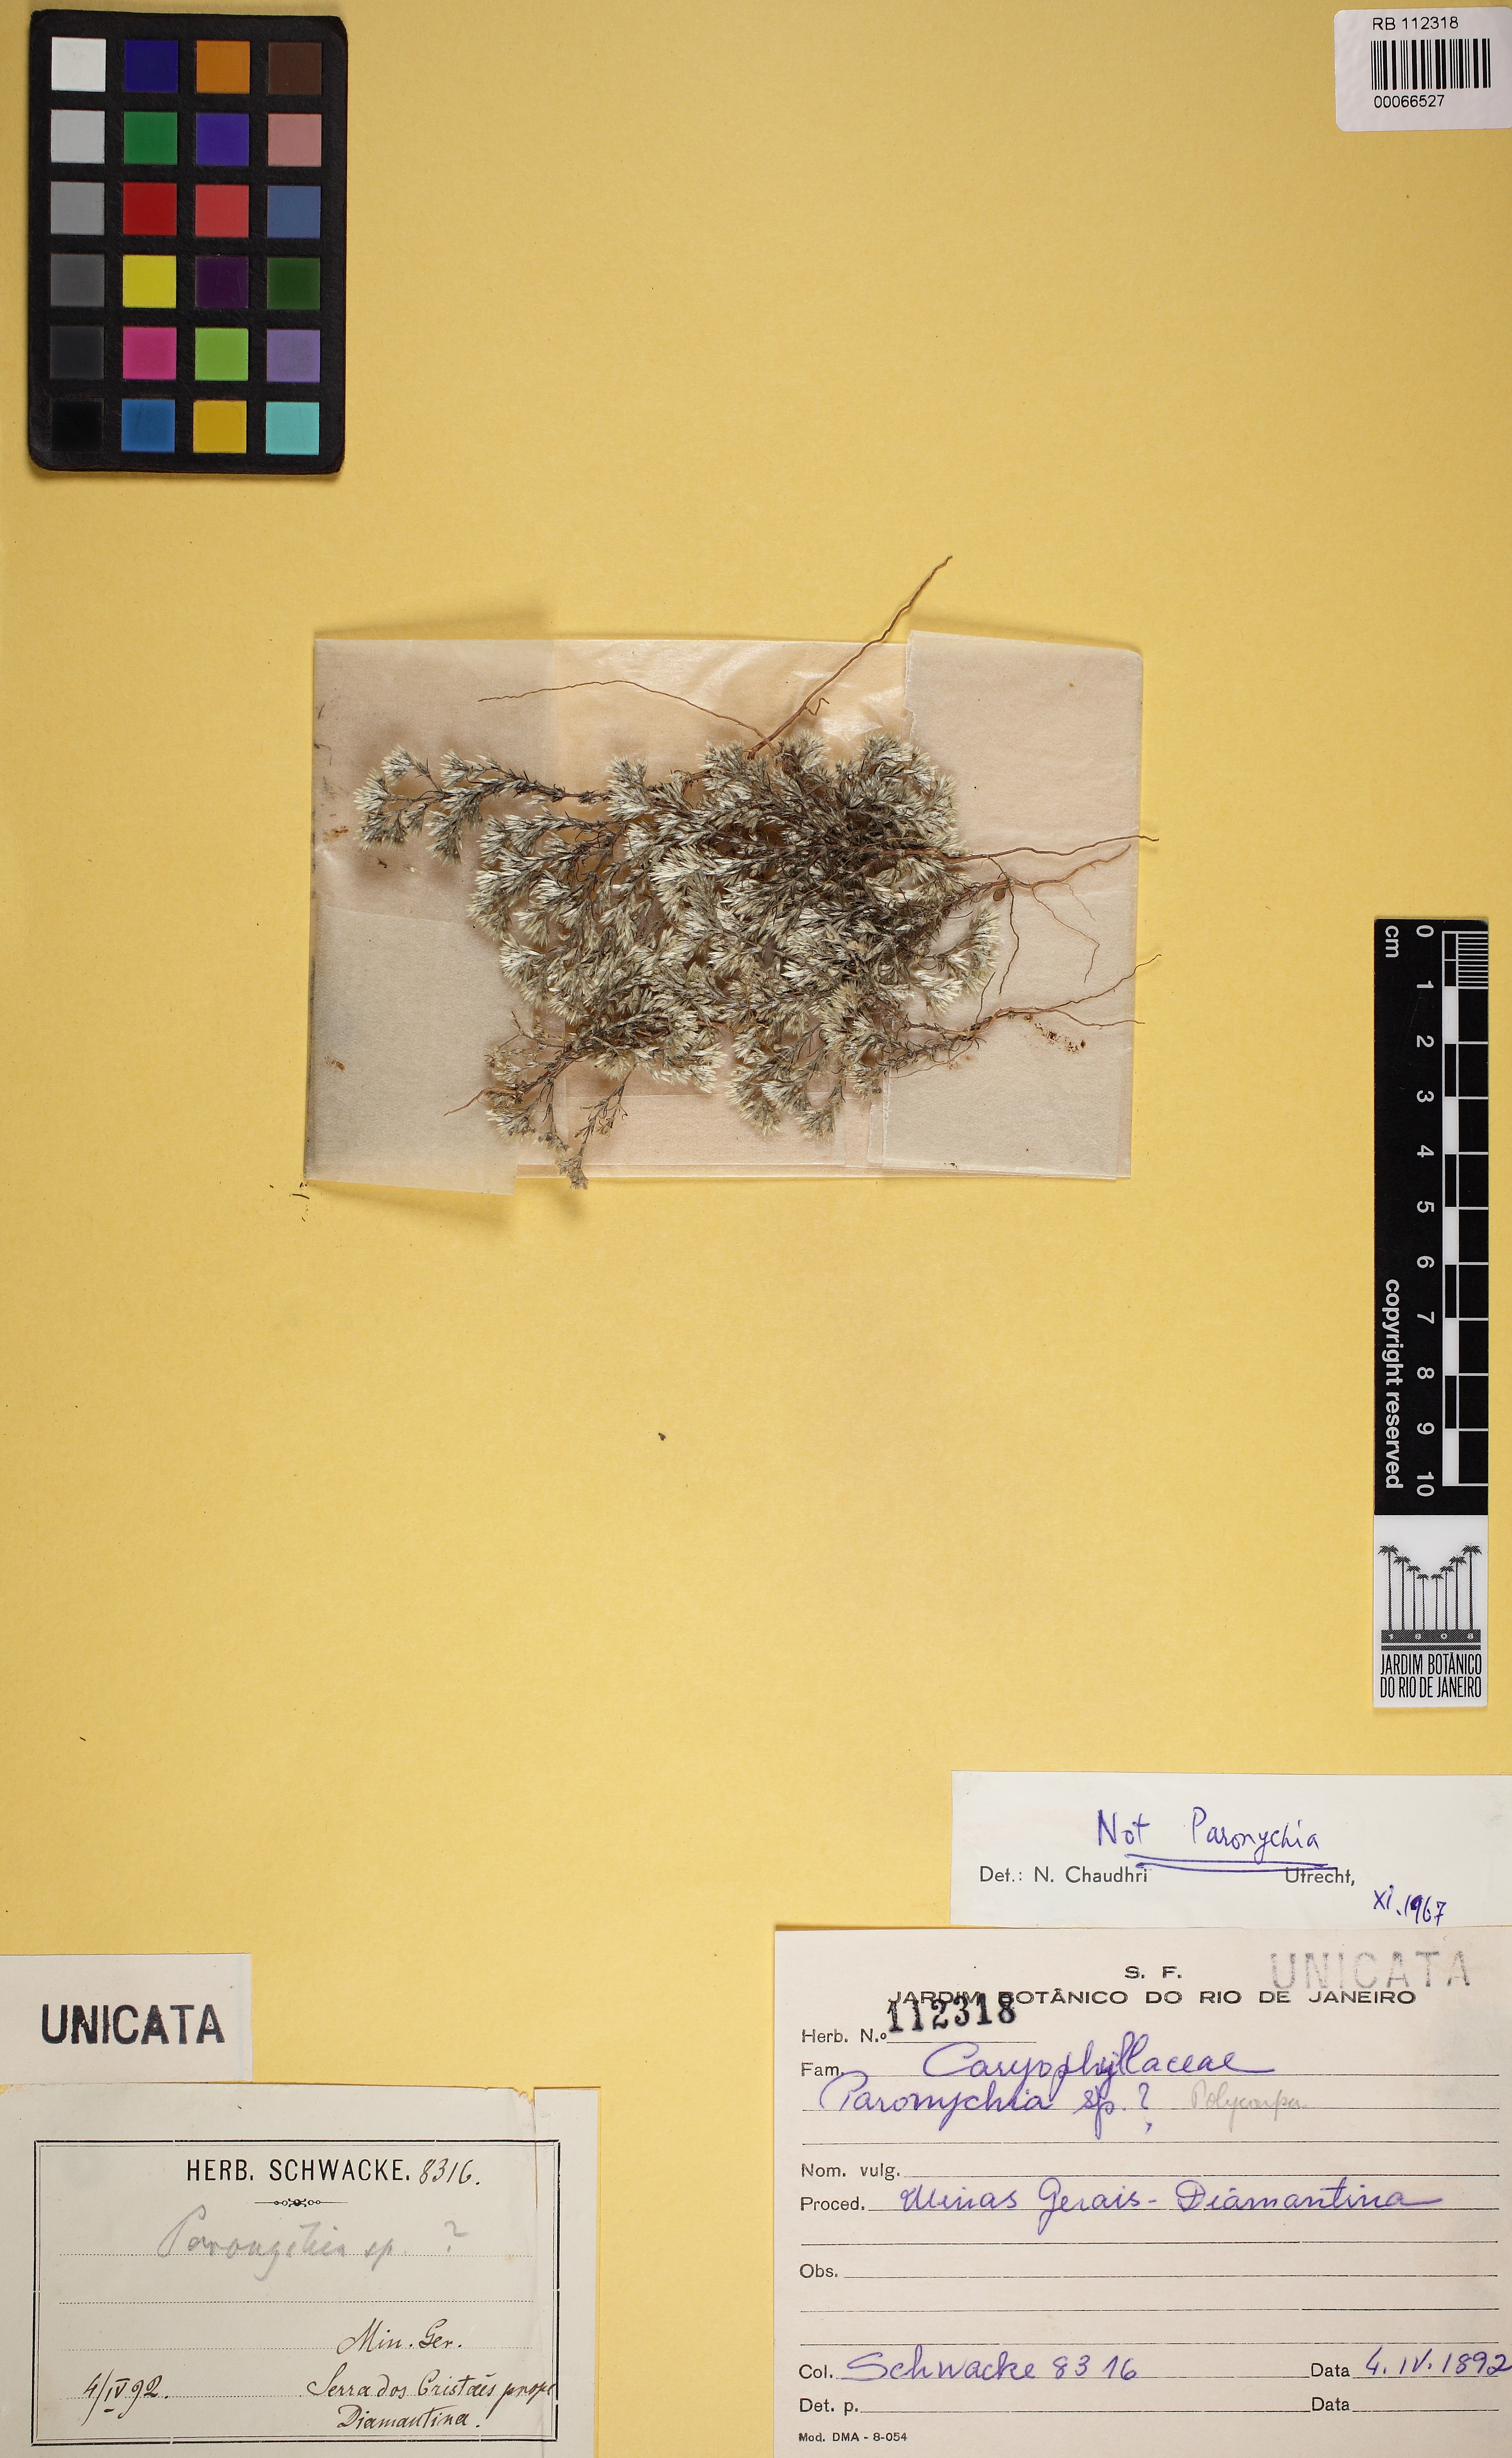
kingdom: Plantae
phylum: Tracheophyta
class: Magnoliopsida
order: Caryophyllales
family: Caryophyllaceae
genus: Paronychia
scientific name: Paronychia
